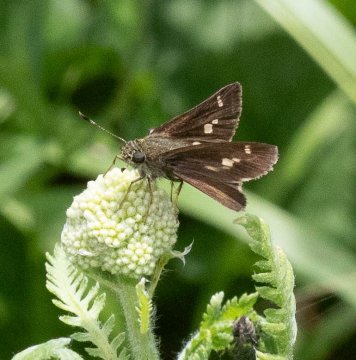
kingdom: Animalia
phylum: Arthropoda
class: Insecta
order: Lepidoptera
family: Hesperiidae
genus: Vernia
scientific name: Vernia verna
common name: Little Glassywing
